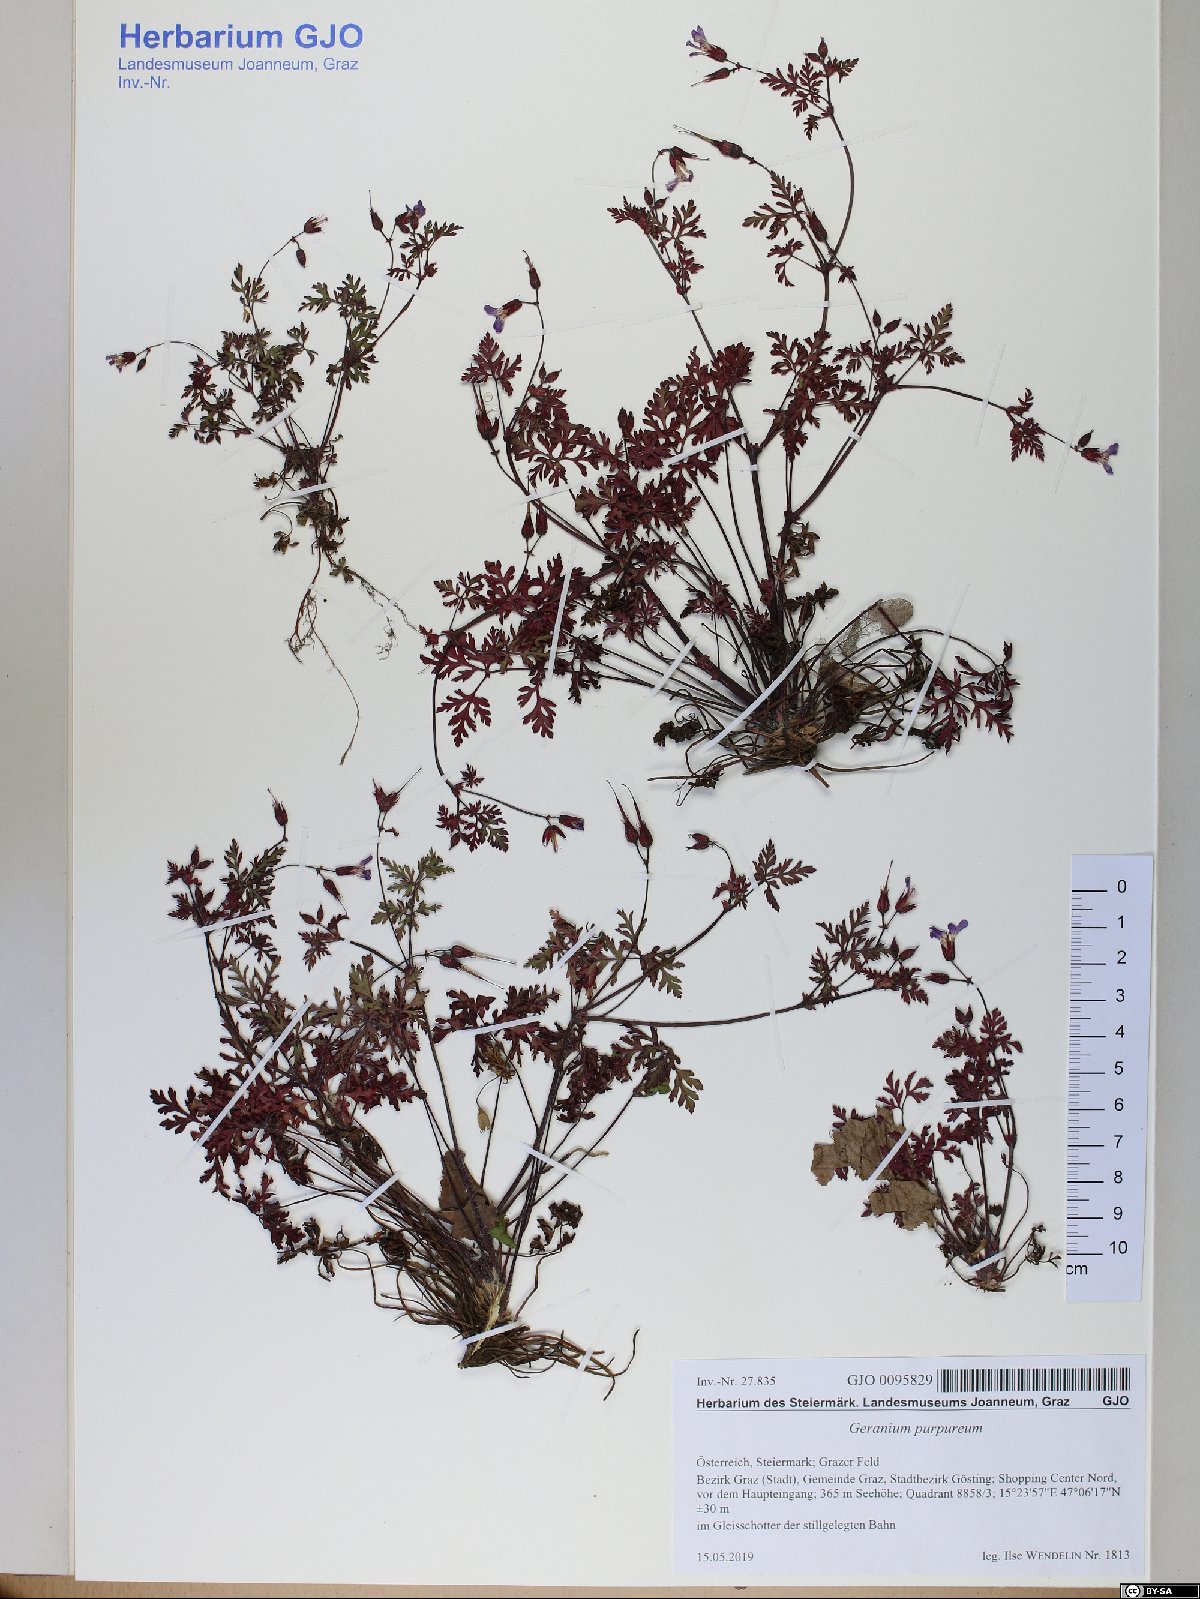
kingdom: Plantae
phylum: Tracheophyta
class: Magnoliopsida
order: Geraniales
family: Geraniaceae
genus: Geranium
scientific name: Geranium purpureum
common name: Little-robin
